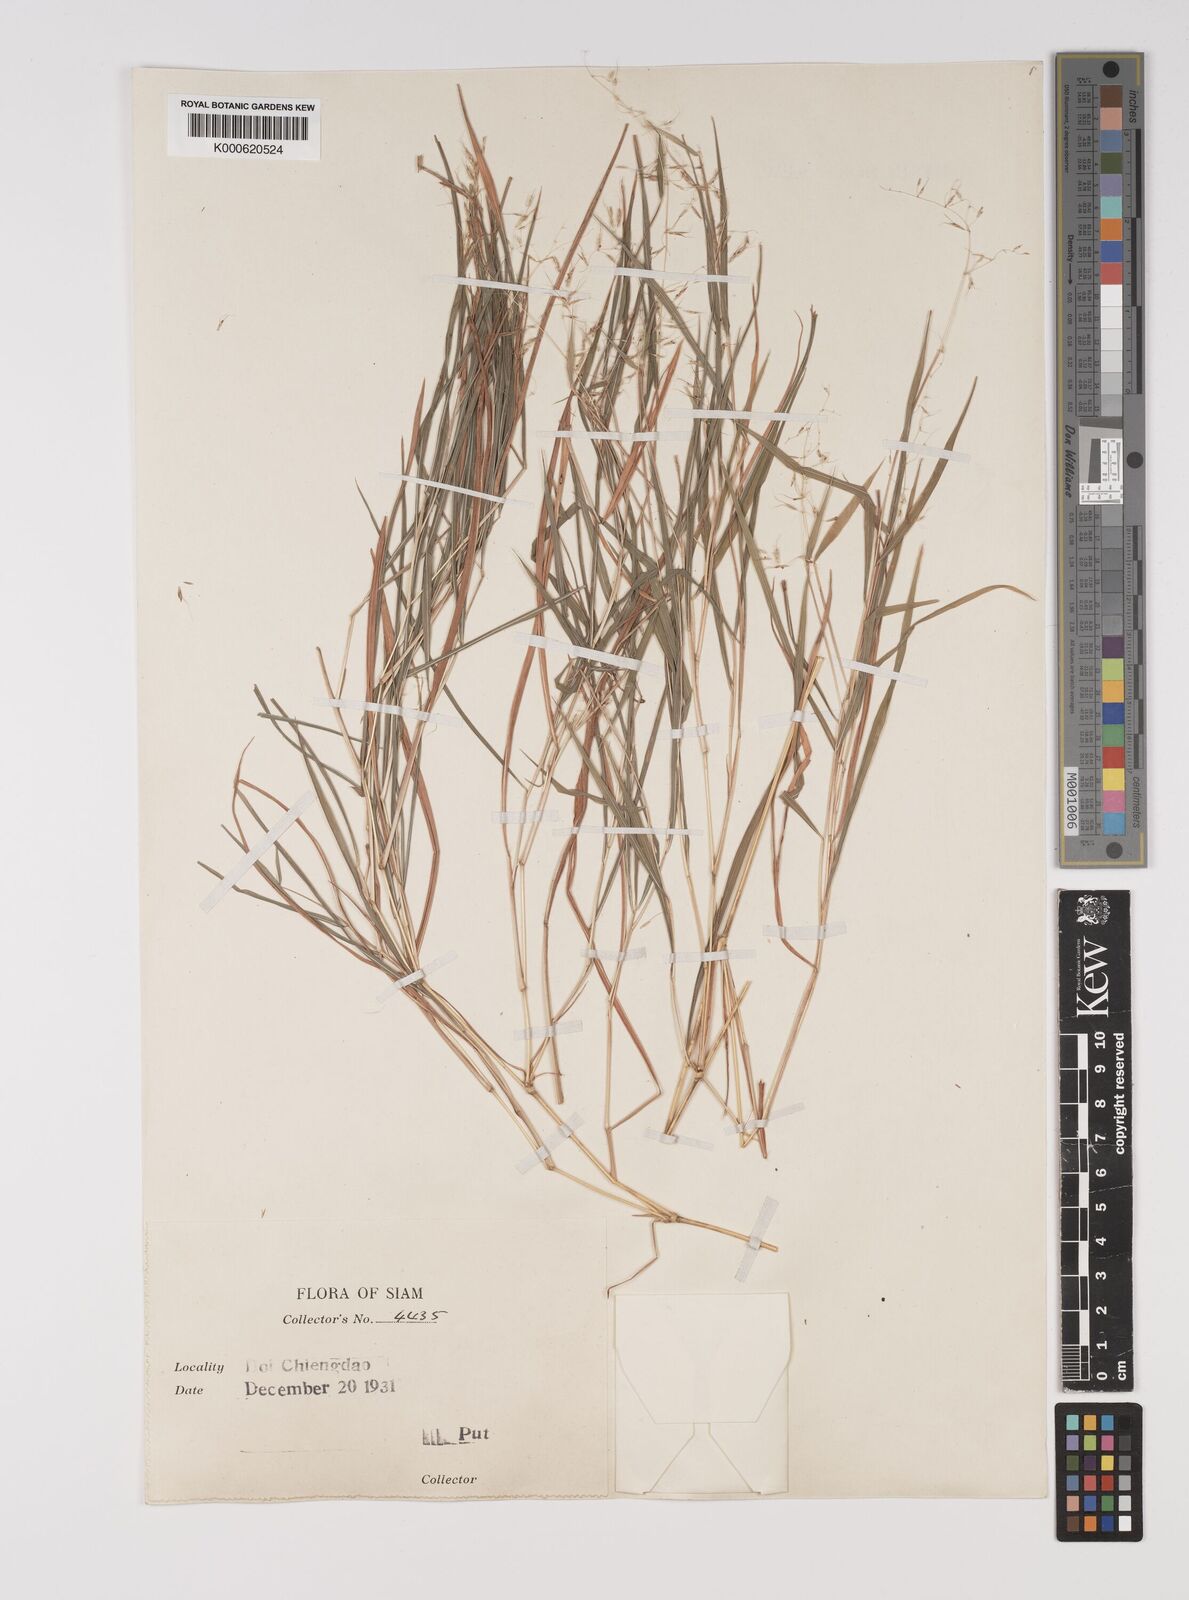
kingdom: Plantae
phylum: Tracheophyta
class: Liliopsida
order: Poales
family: Poaceae
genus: Capillipedium
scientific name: Capillipedium assimile
